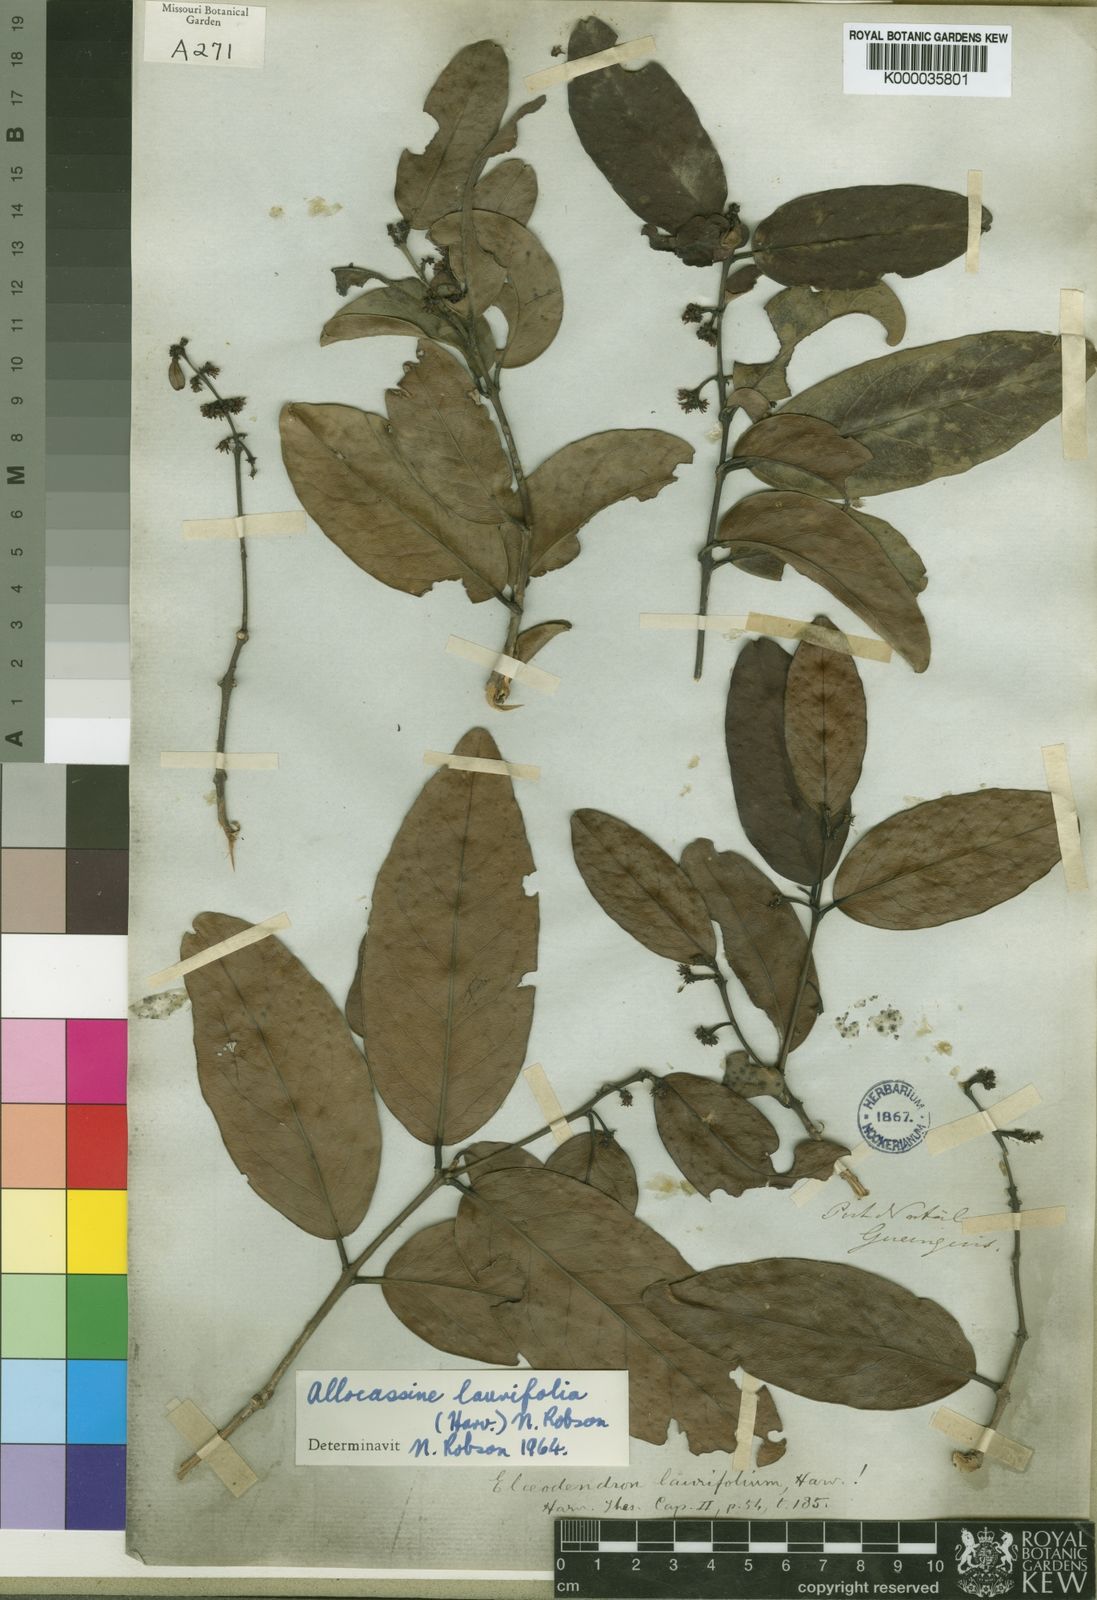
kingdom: Plantae
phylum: Tracheophyta
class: Magnoliopsida
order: Celastrales
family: Celastraceae
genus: Allocassine
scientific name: Allocassine
